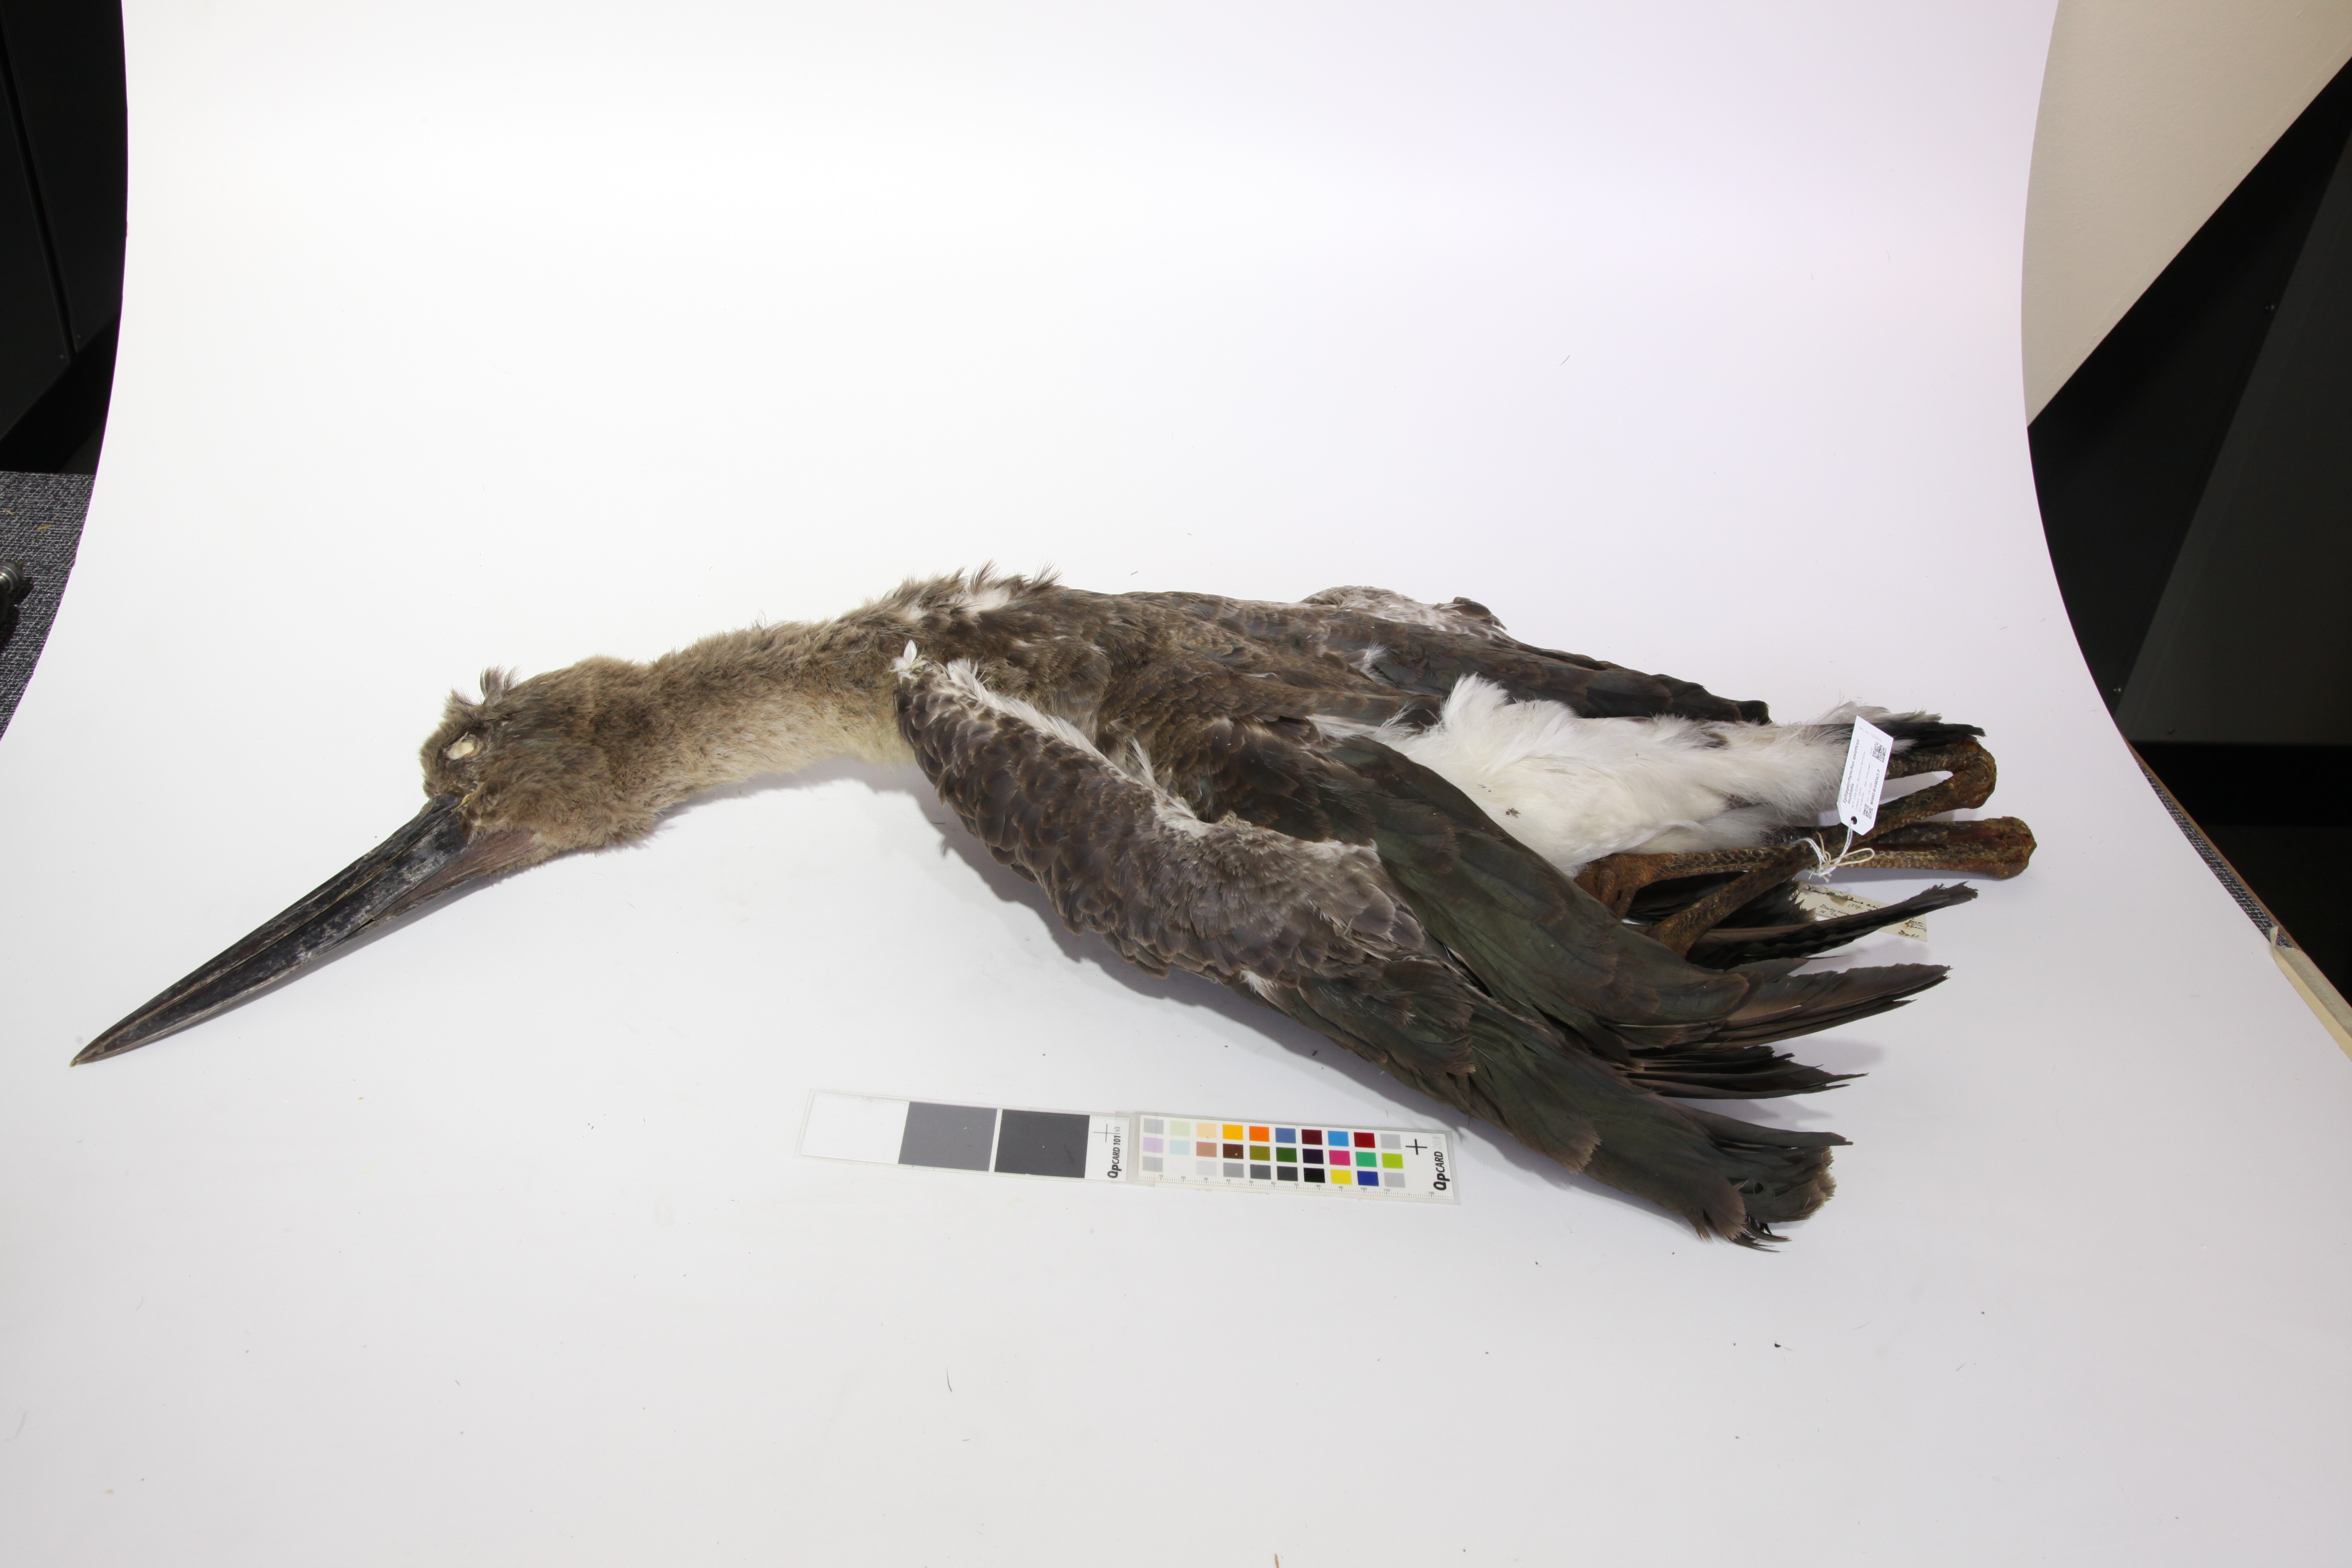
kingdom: Animalia
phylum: Chordata
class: Aves
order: Ciconiiformes
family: Ciconiidae
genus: Ephippiorhynchus
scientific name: Ephippiorhynchus asiaticus
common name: Black-necked stork
